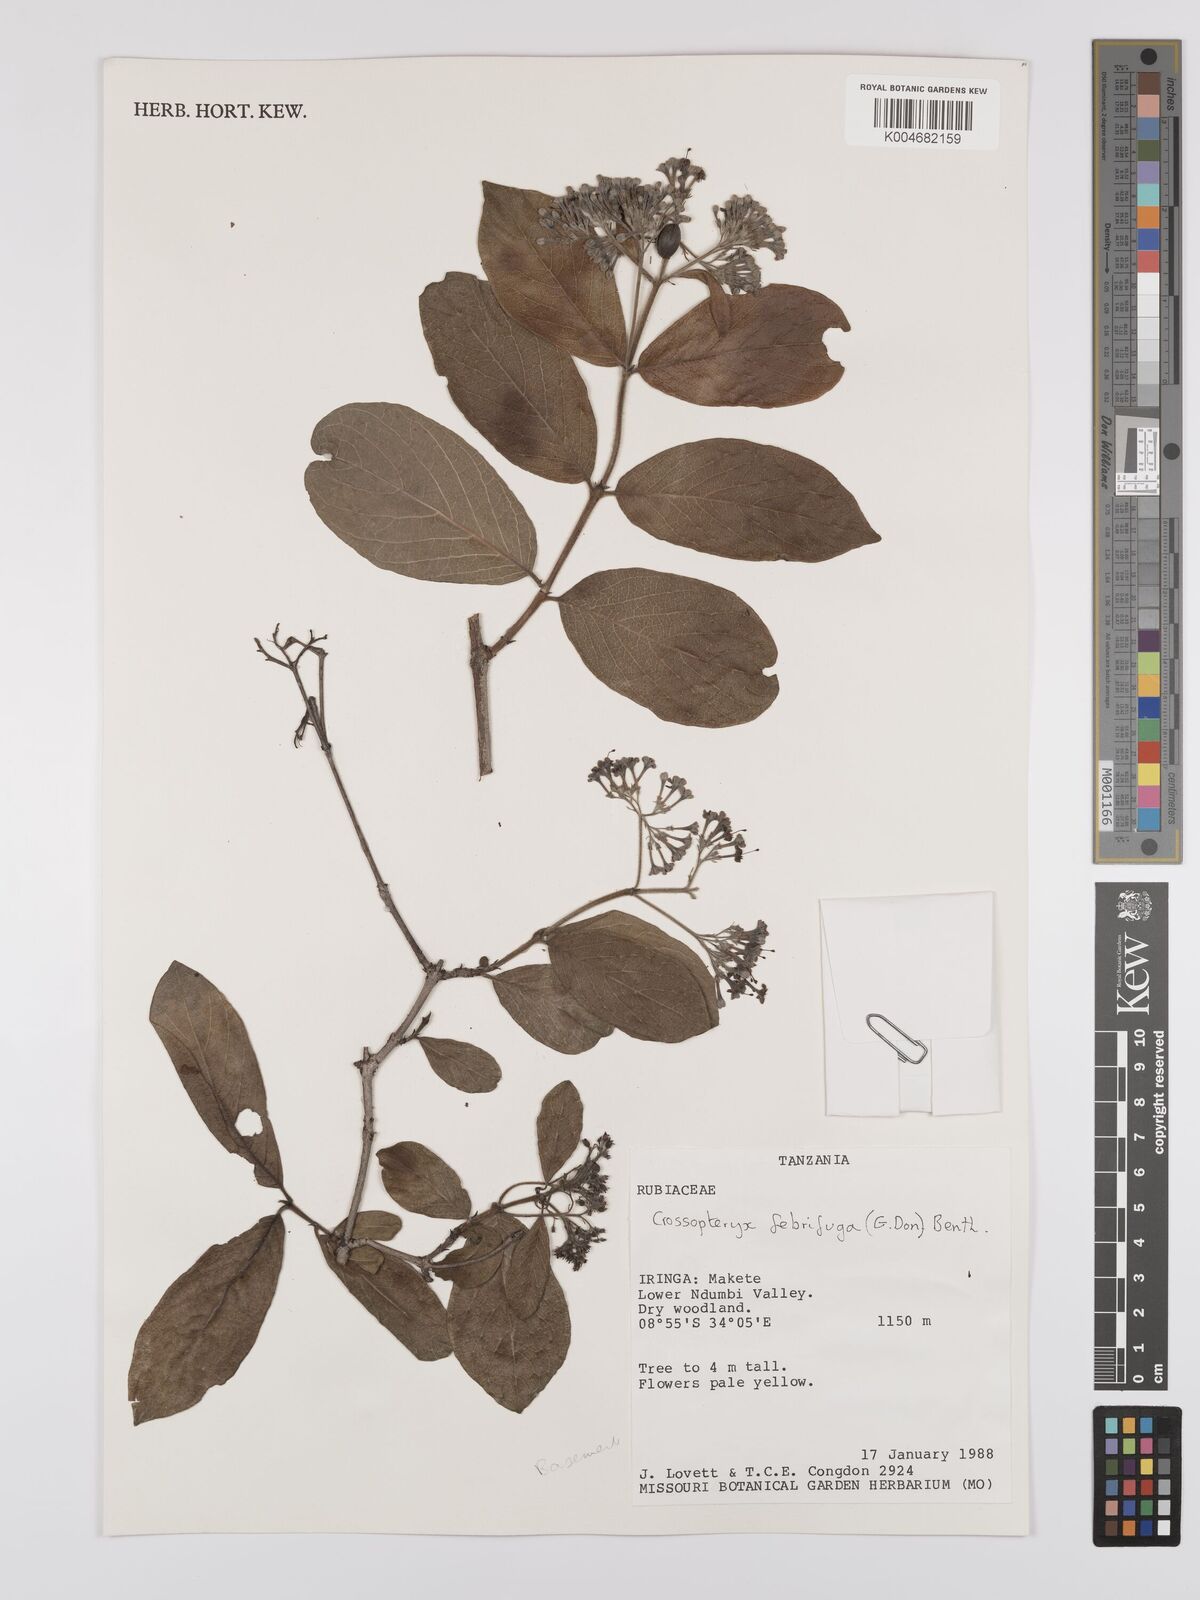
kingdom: Plantae
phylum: Tracheophyta
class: Magnoliopsida
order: Gentianales
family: Rubiaceae
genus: Crossopteryx
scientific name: Crossopteryx febrifuga
